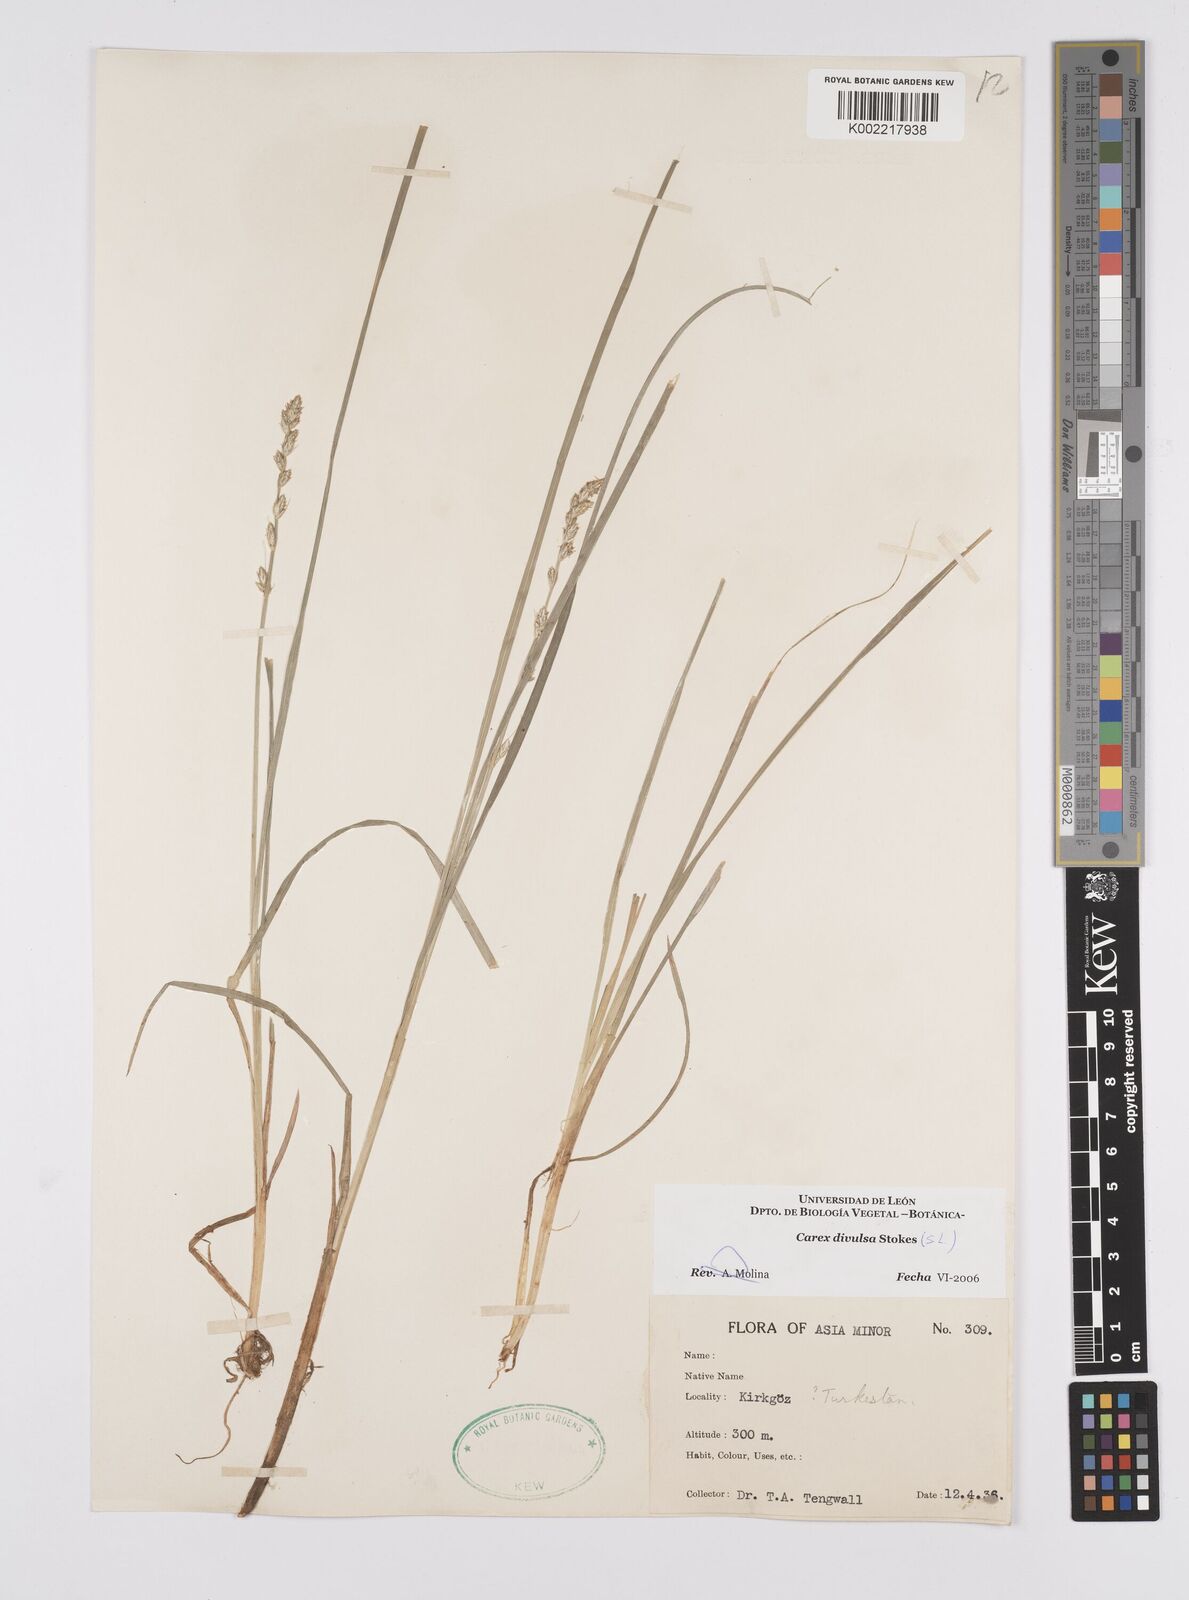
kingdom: Plantae
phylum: Tracheophyta
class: Liliopsida
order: Poales
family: Cyperaceae
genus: Carex
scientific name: Carex divulsa
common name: Grassland sedge
